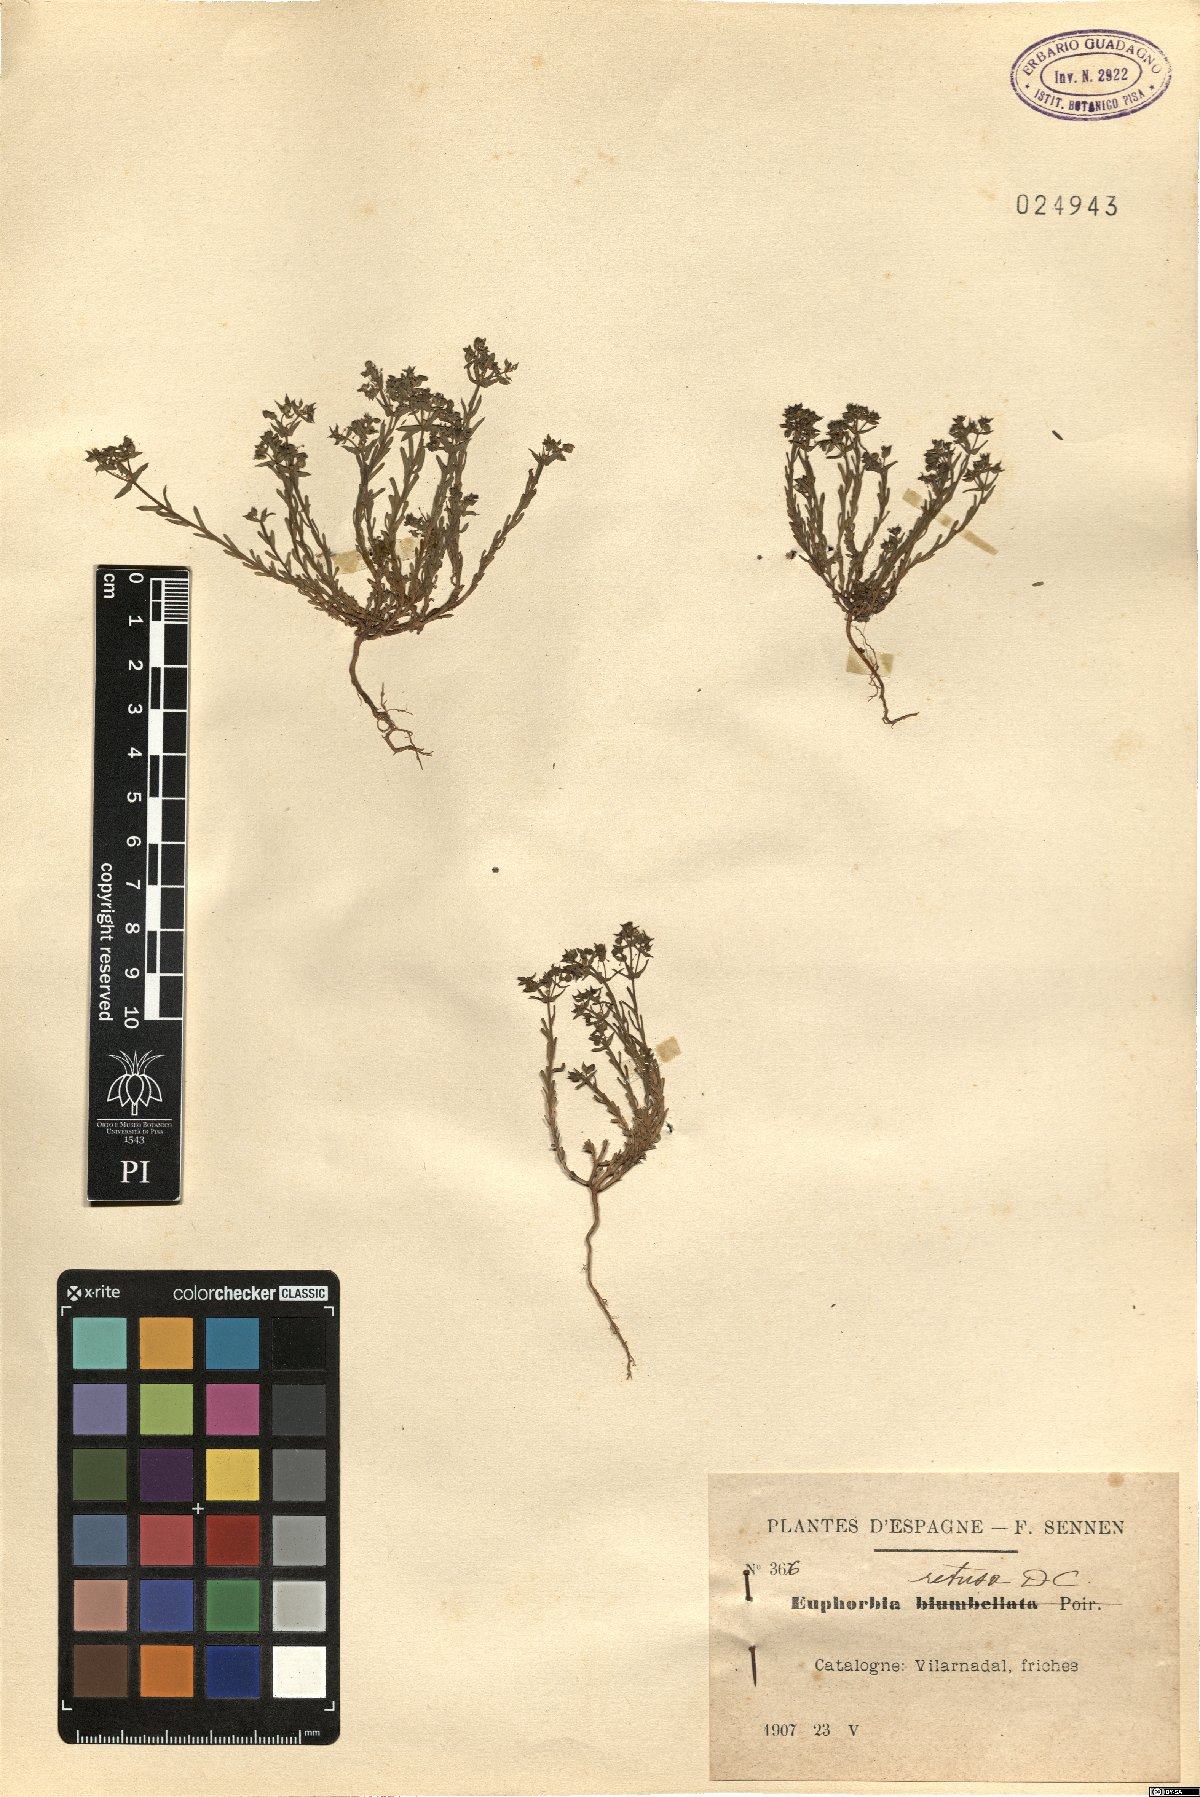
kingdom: Plantae
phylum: Tracheophyta
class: Magnoliopsida
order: Malpighiales
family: Euphorbiaceae
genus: Euphorbia
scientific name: Euphorbia retusa
